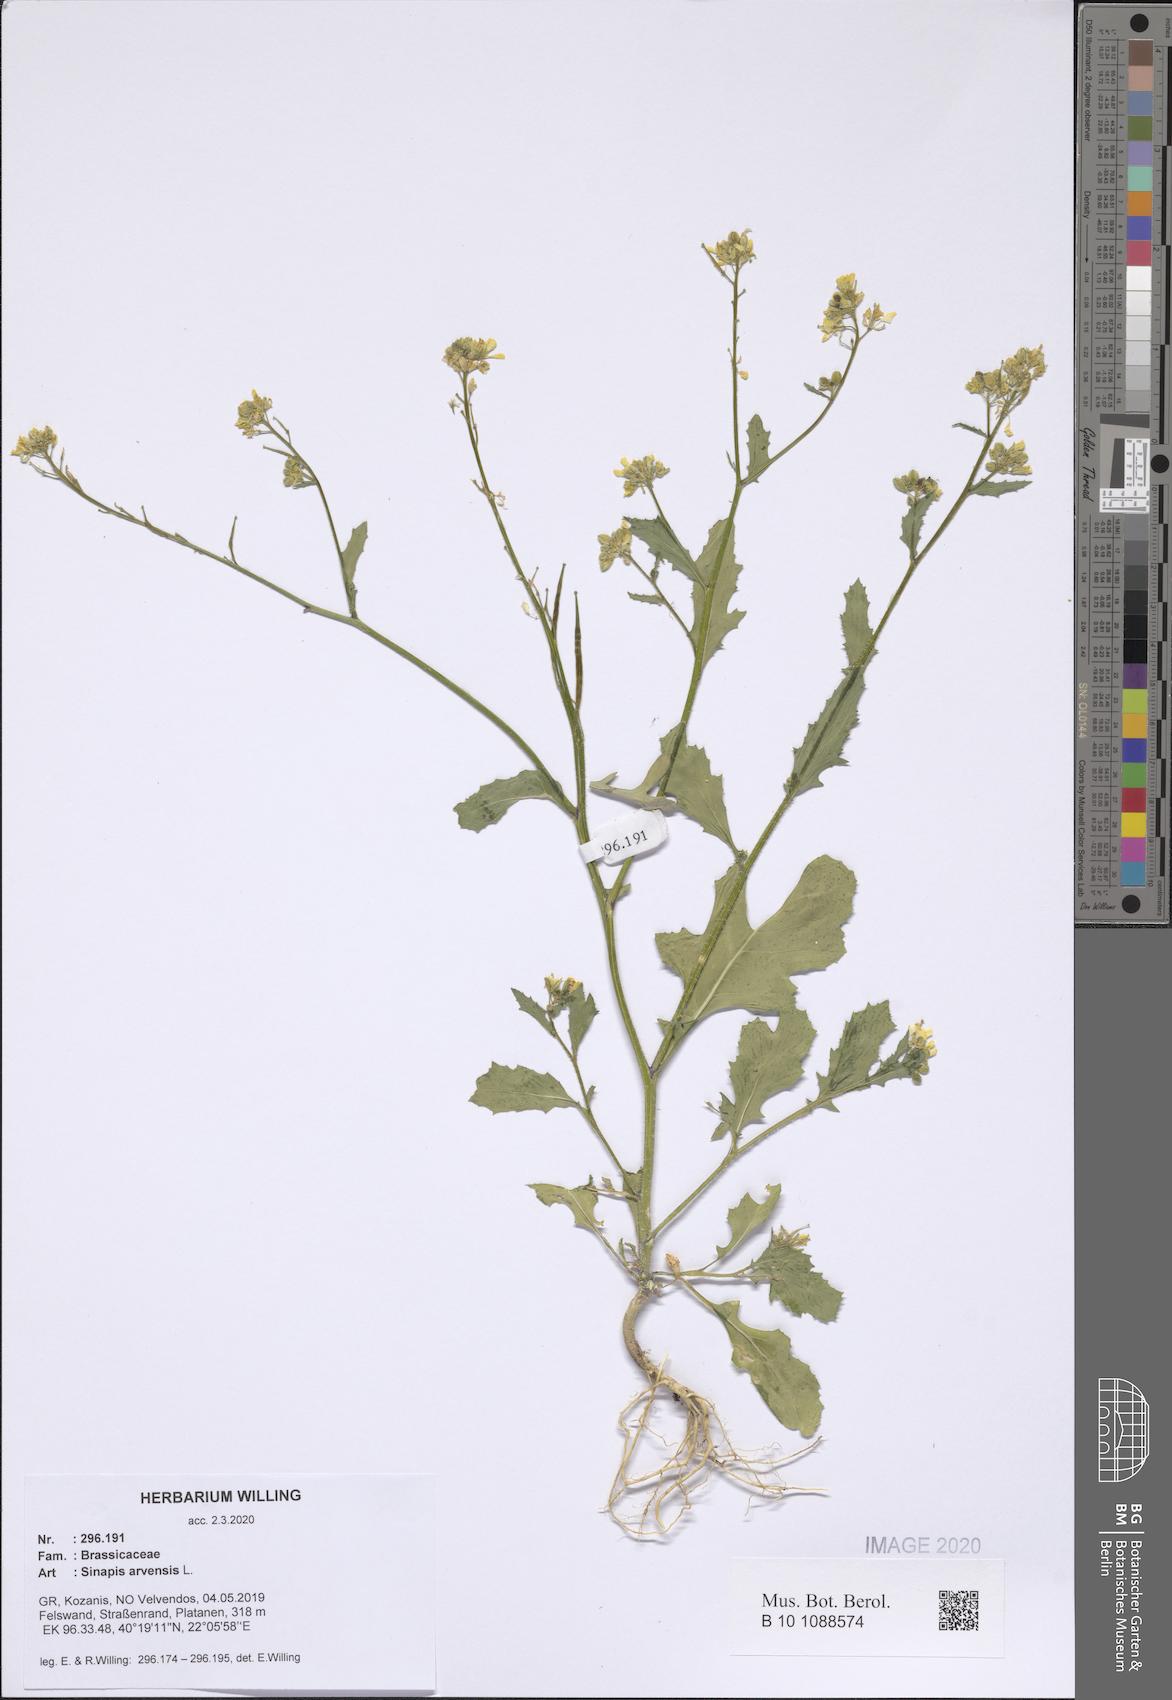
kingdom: Plantae
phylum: Tracheophyta
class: Magnoliopsida
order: Brassicales
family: Brassicaceae
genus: Sinapis
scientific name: Sinapis arvensis
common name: Charlock
